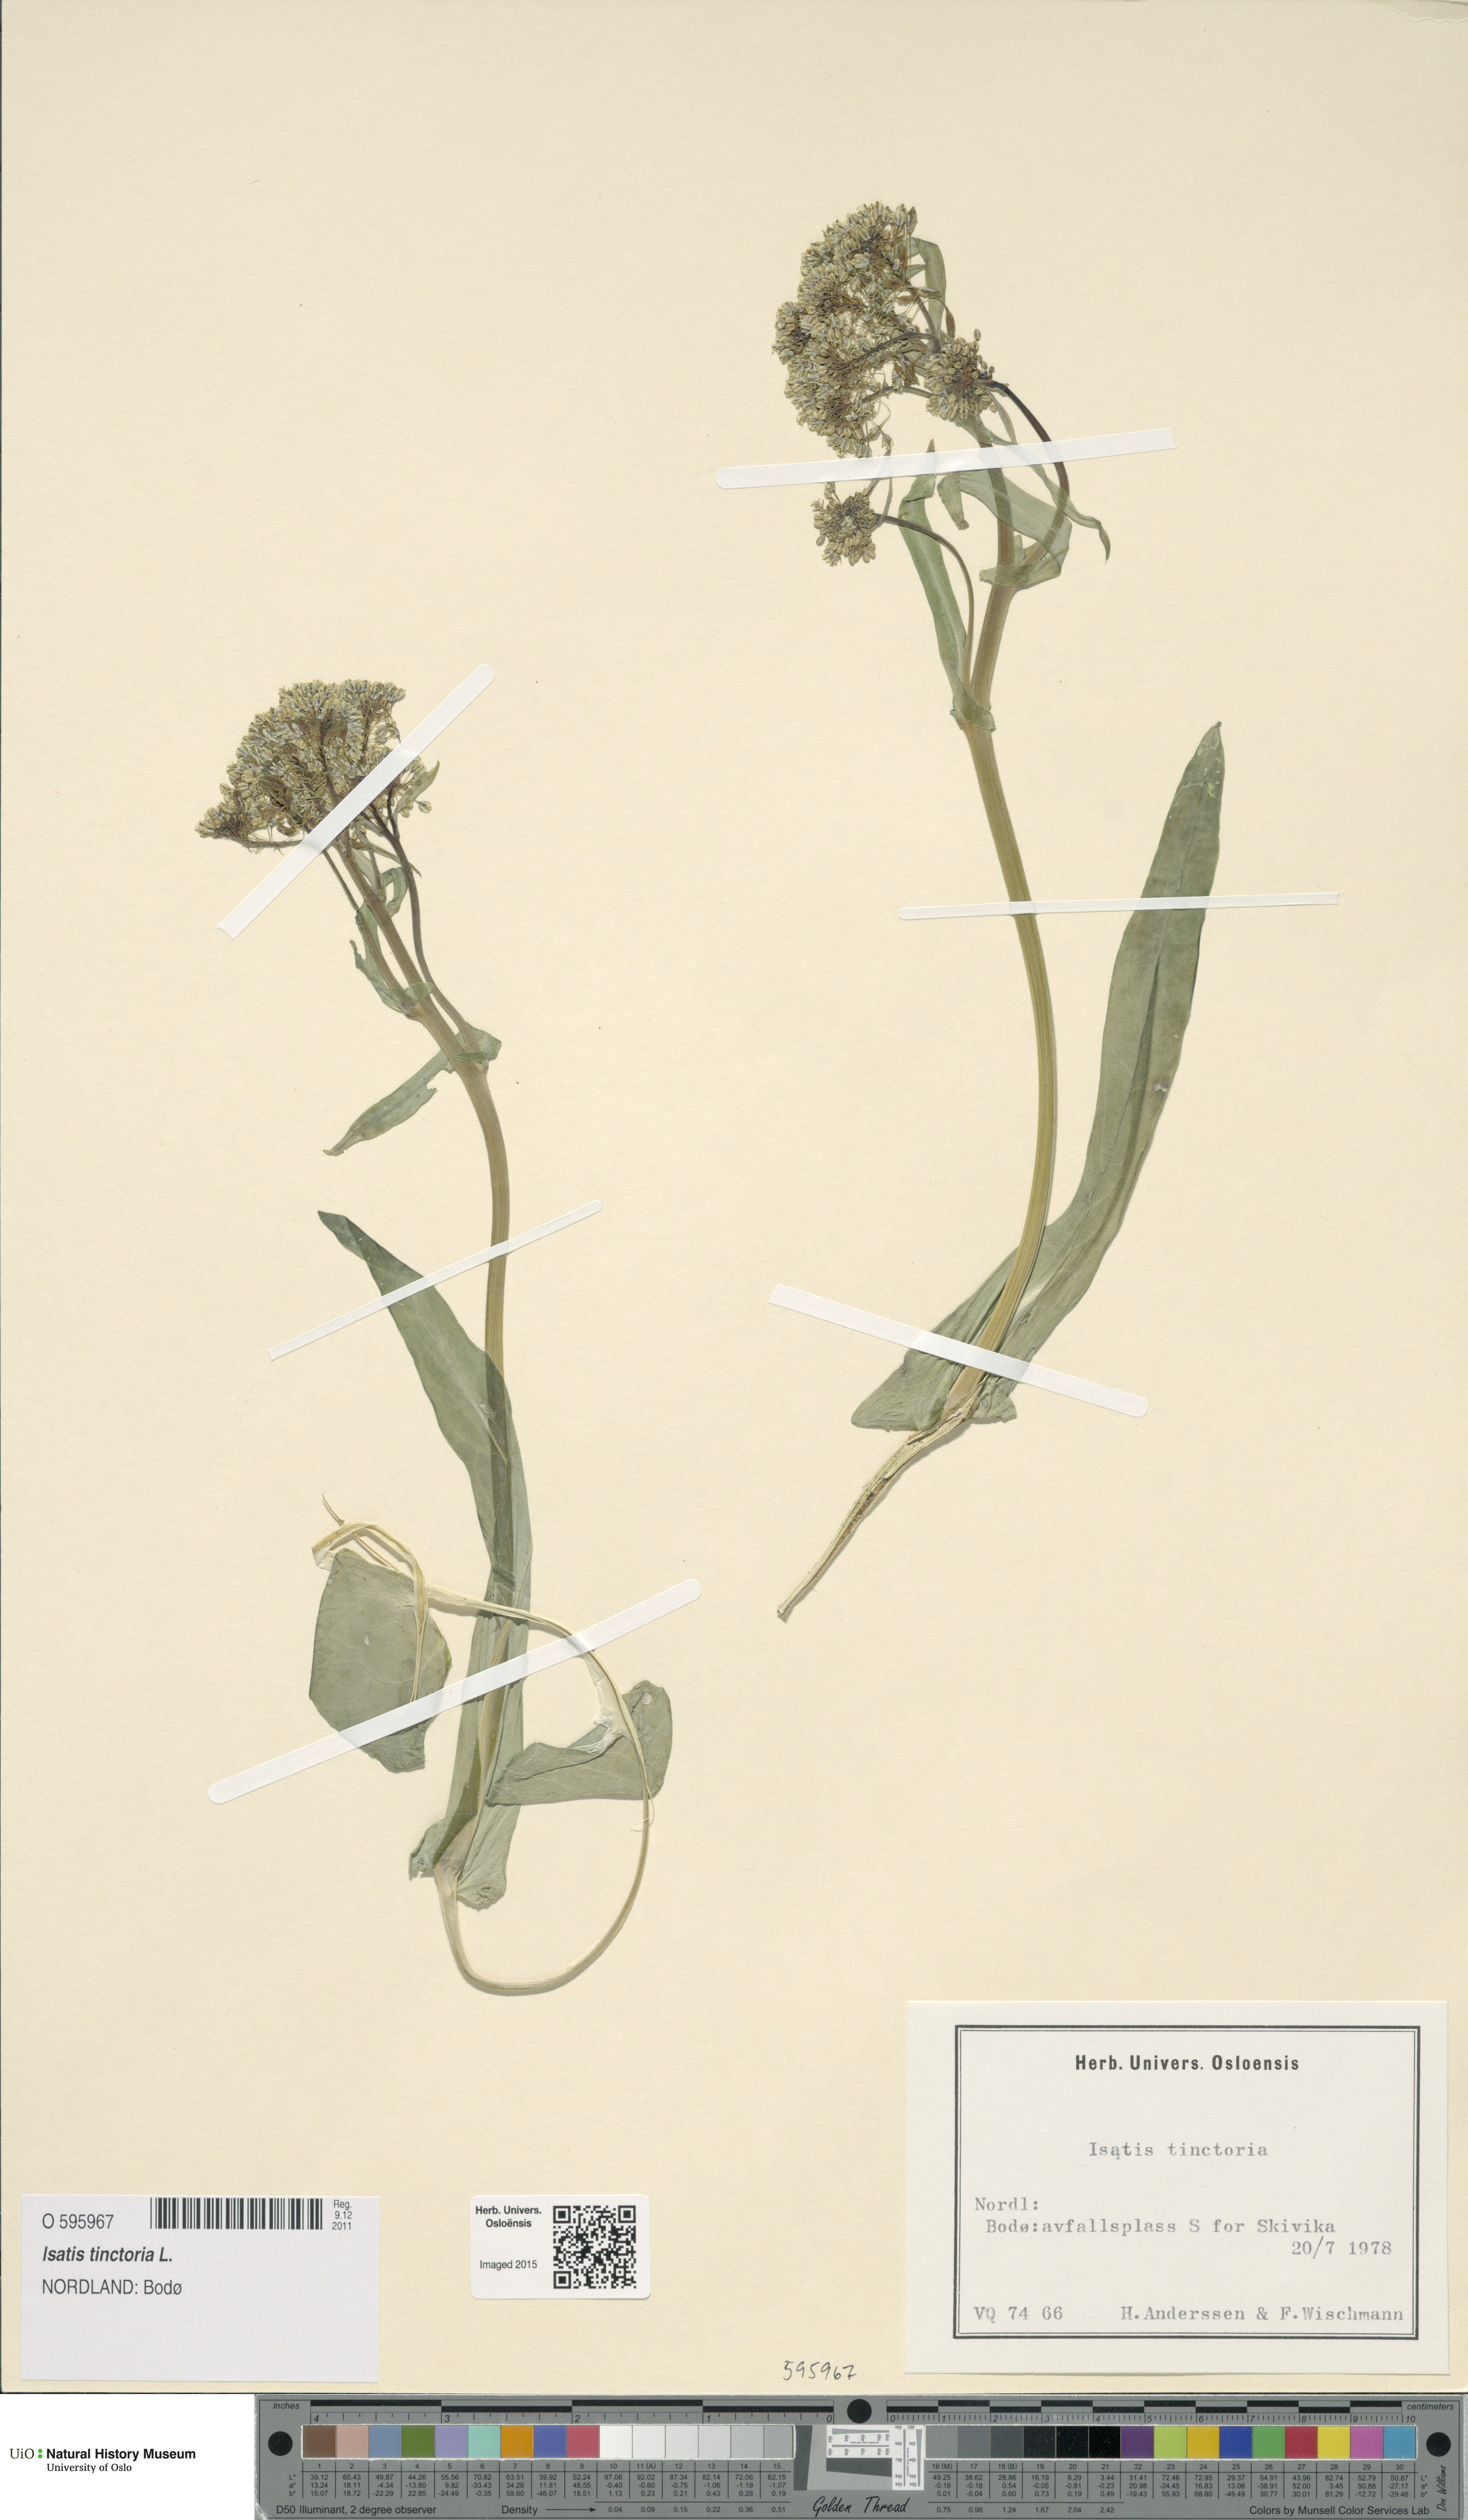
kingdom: Plantae
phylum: Tracheophyta
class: Magnoliopsida
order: Brassicales
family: Brassicaceae
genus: Isatis
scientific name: Isatis tinctoria
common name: Woad
